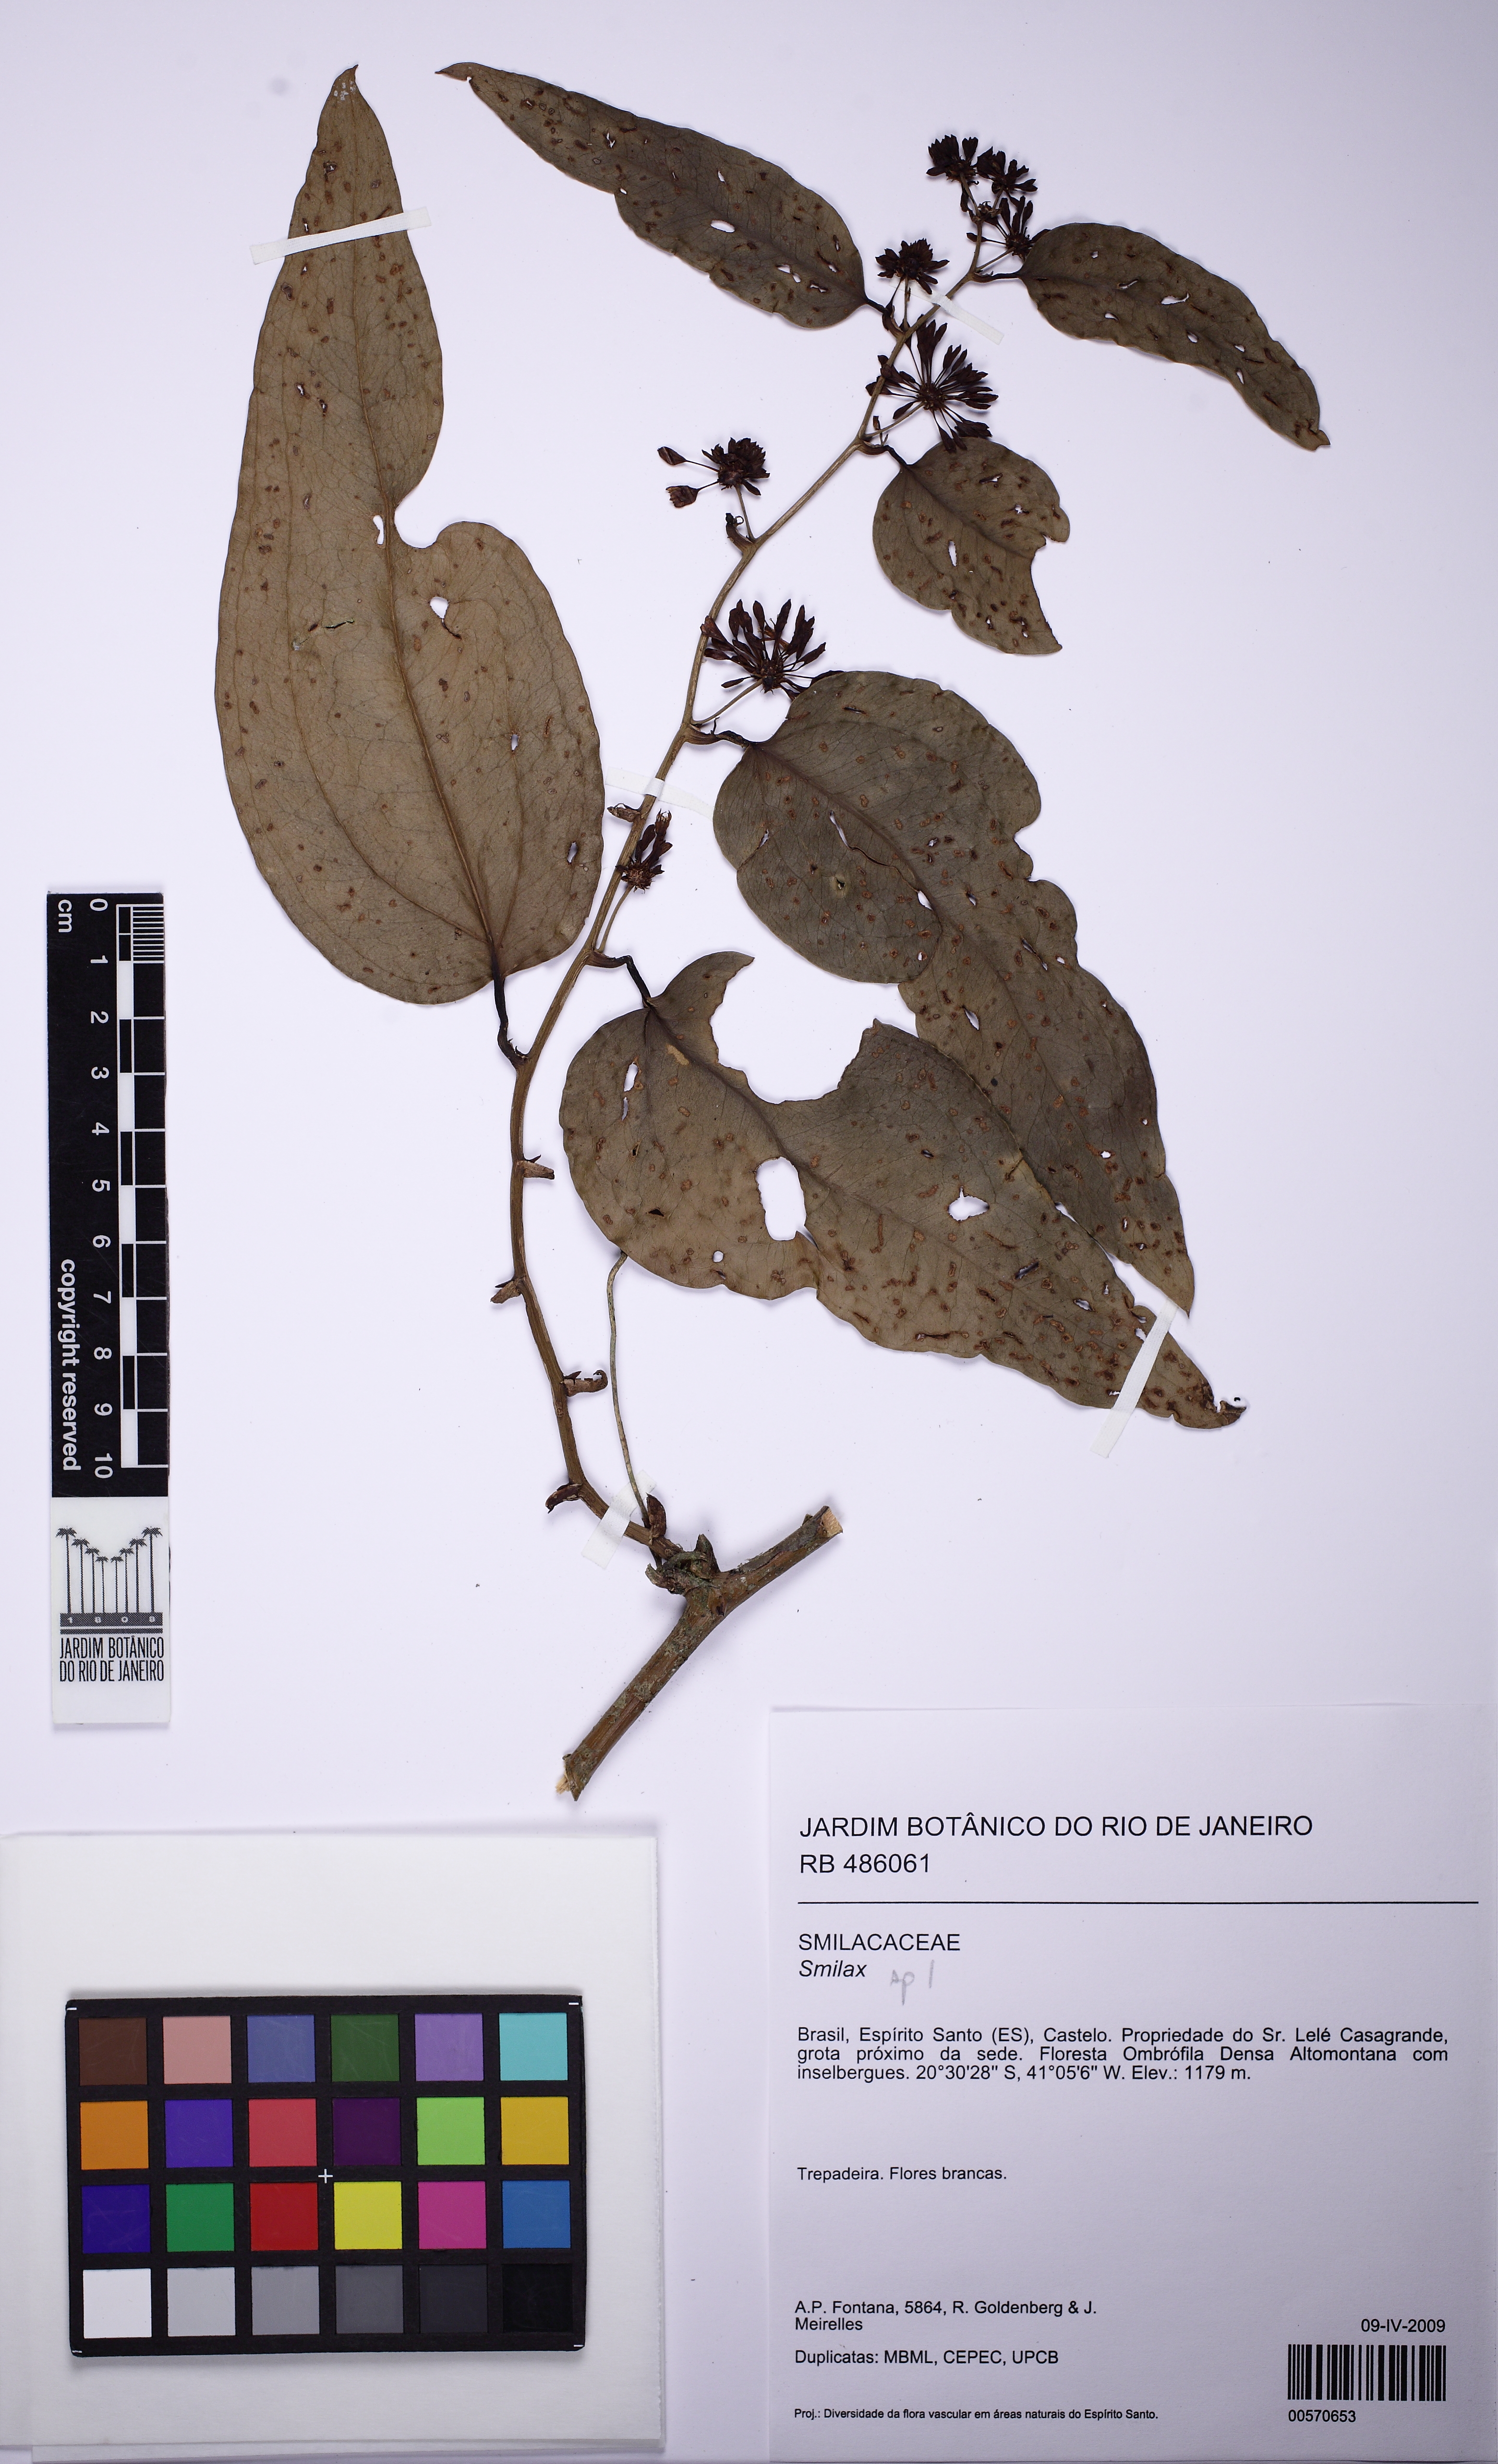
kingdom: Plantae
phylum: Tracheophyta
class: Liliopsida
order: Liliales
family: Smilacaceae
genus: Smilax
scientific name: Smilax
